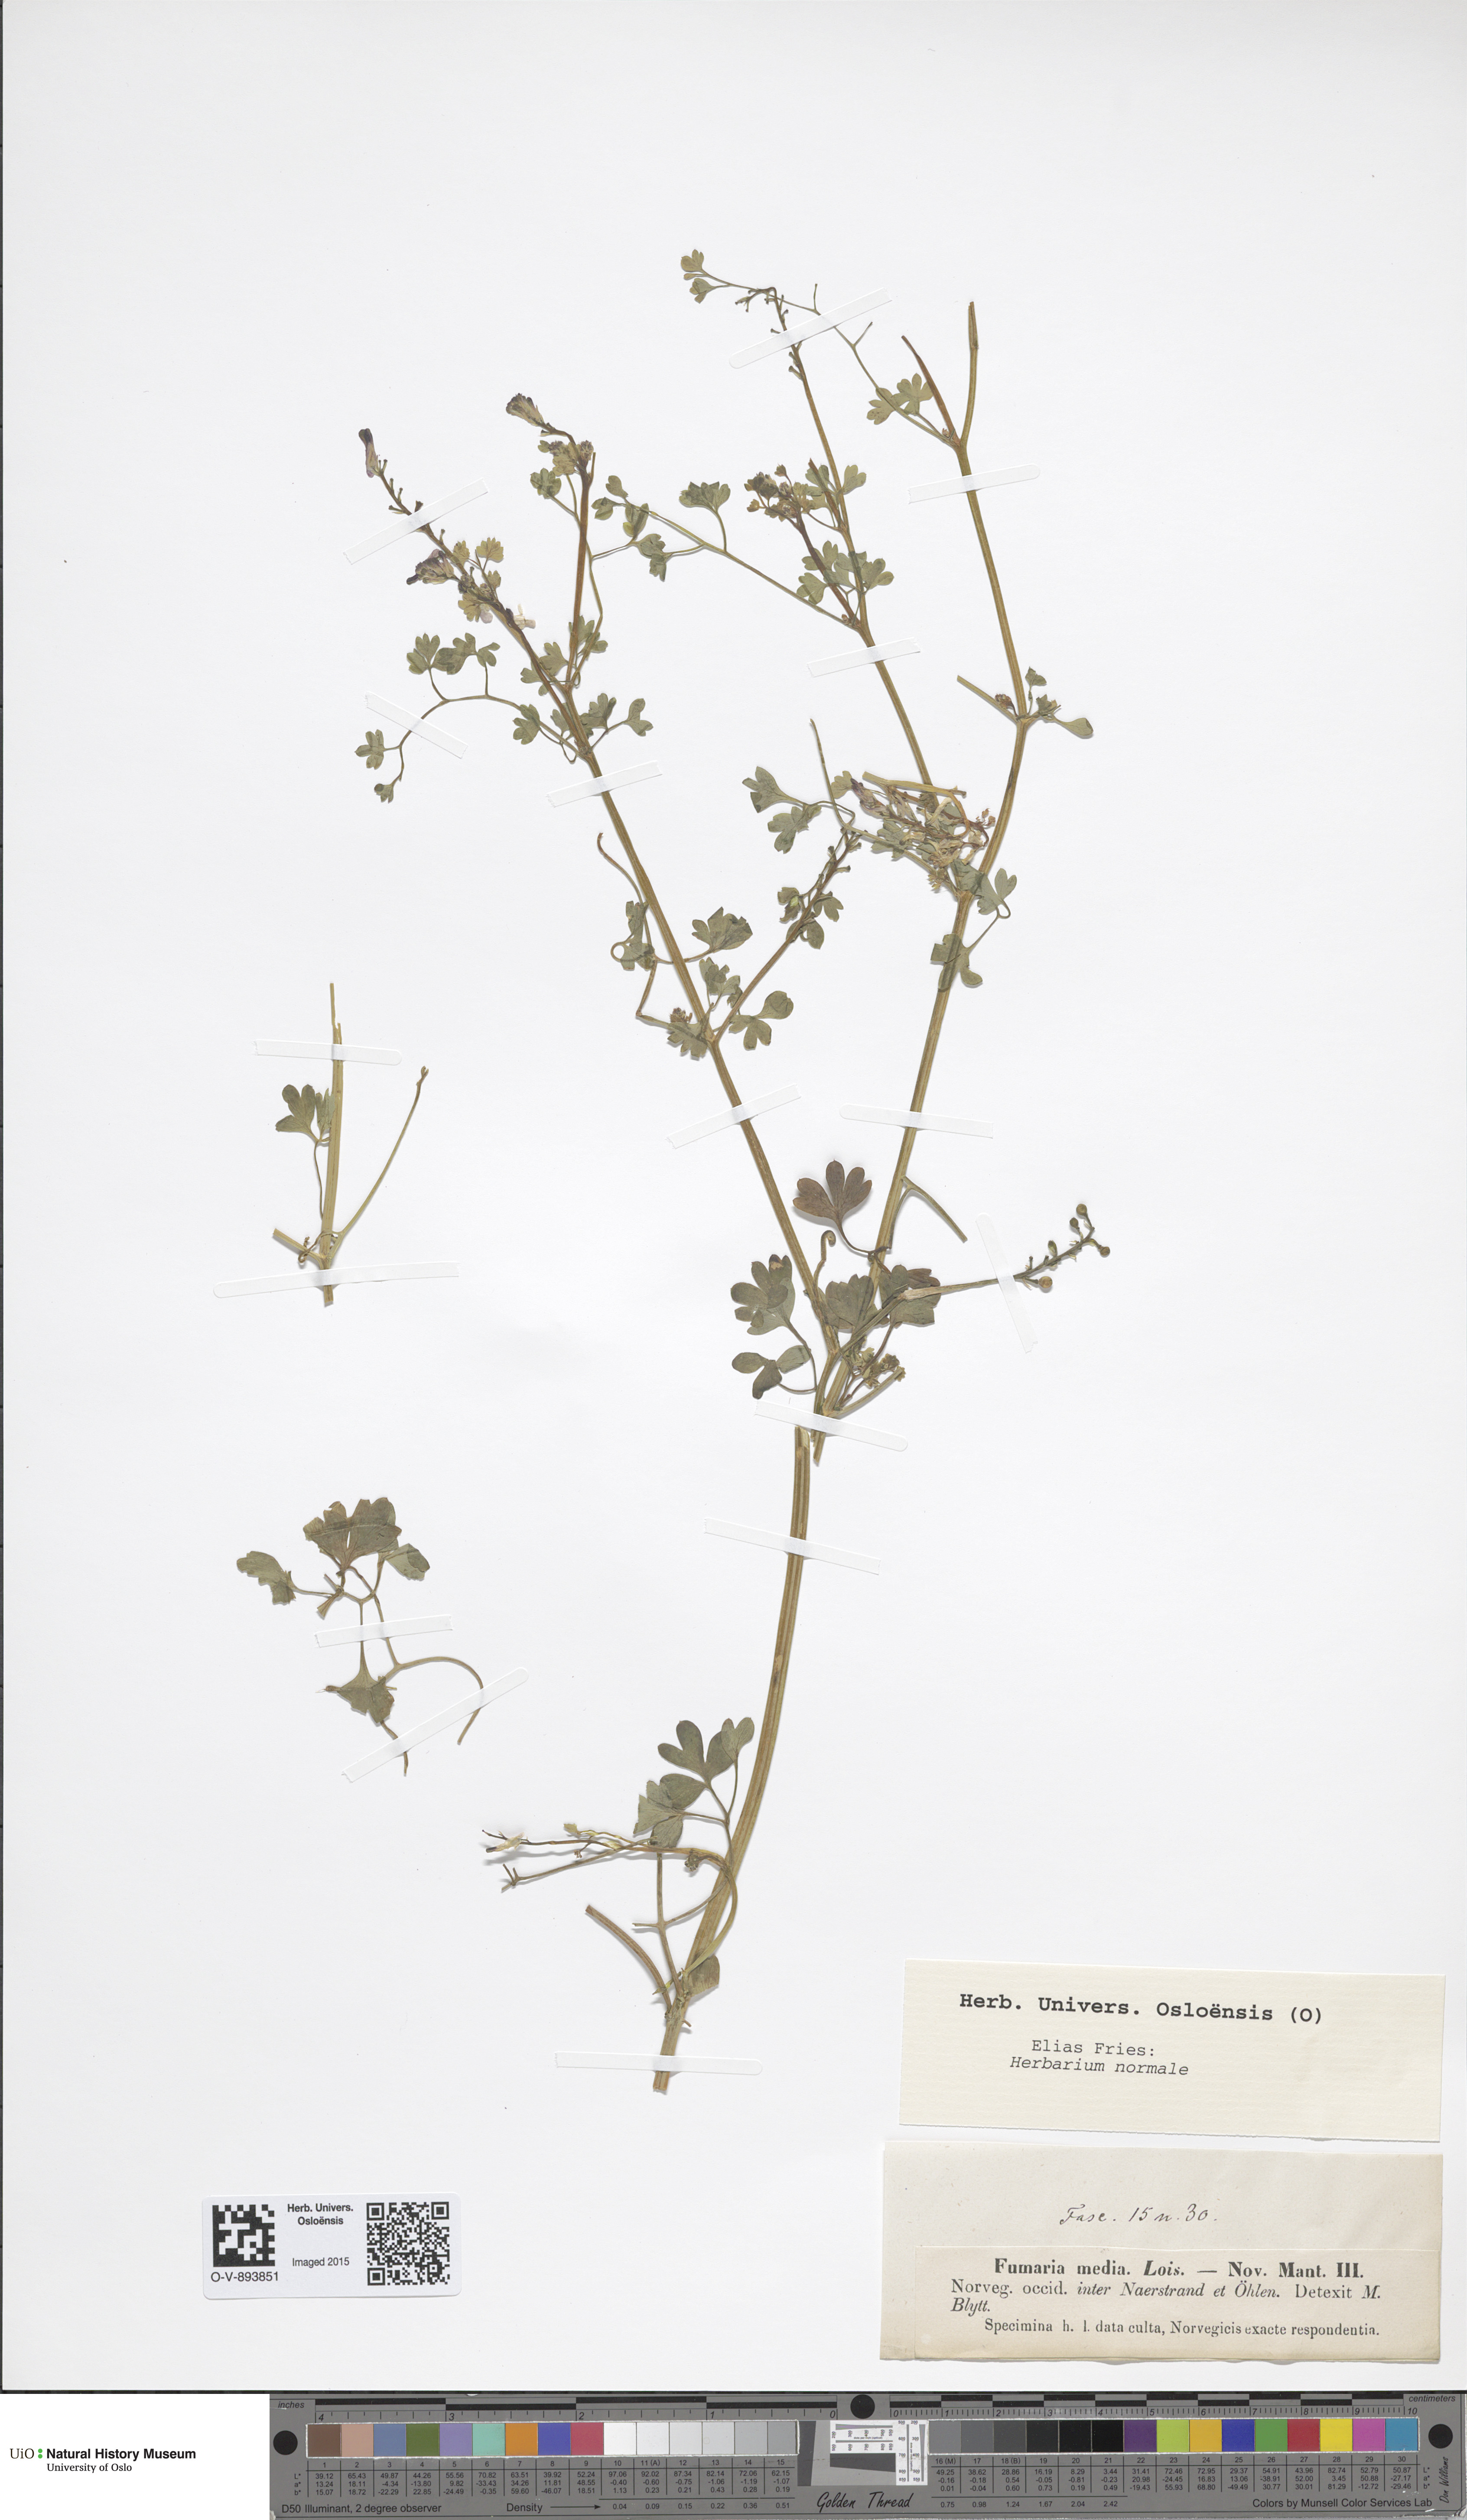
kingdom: Plantae
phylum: Tracheophyta
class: Magnoliopsida
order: Ranunculales
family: Papaveraceae
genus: Fumaria
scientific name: Fumaria muralis
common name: Common ramping-fumitory
